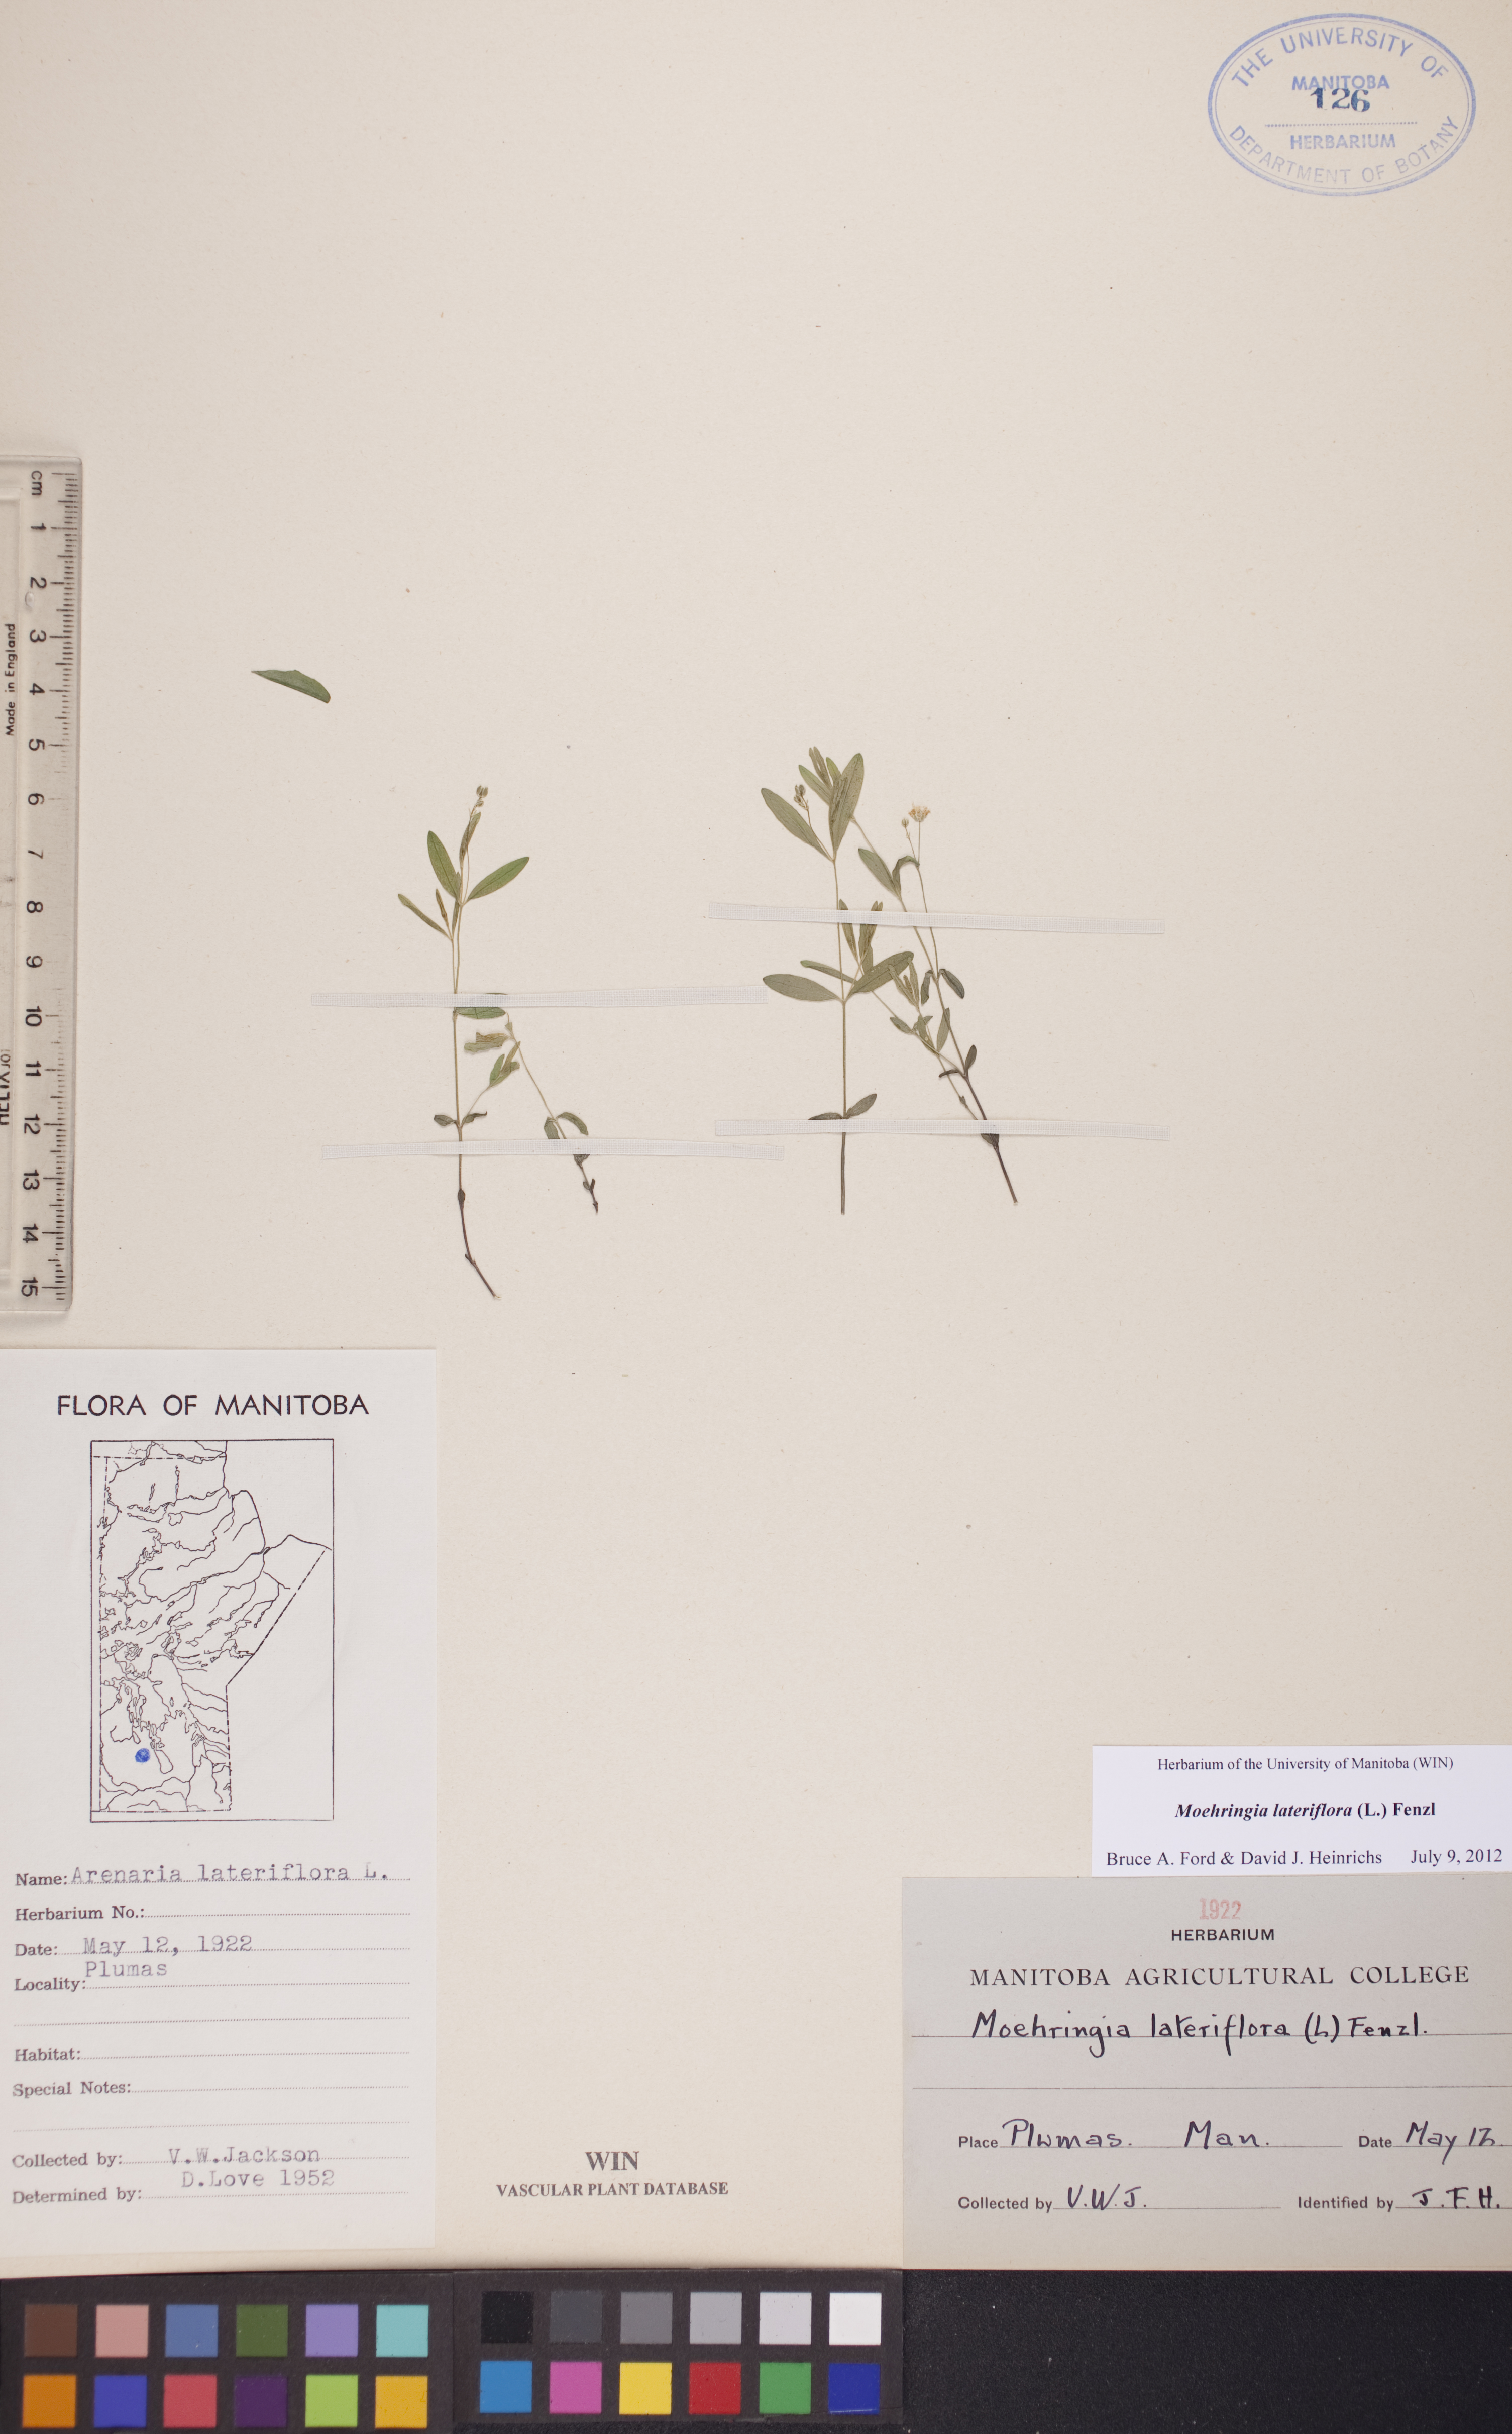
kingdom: Plantae
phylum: Tracheophyta
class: Magnoliopsida
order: Caryophyllales
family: Caryophyllaceae
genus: Moehringia
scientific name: Moehringia lateriflora
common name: Blunt-leaved sandwort
